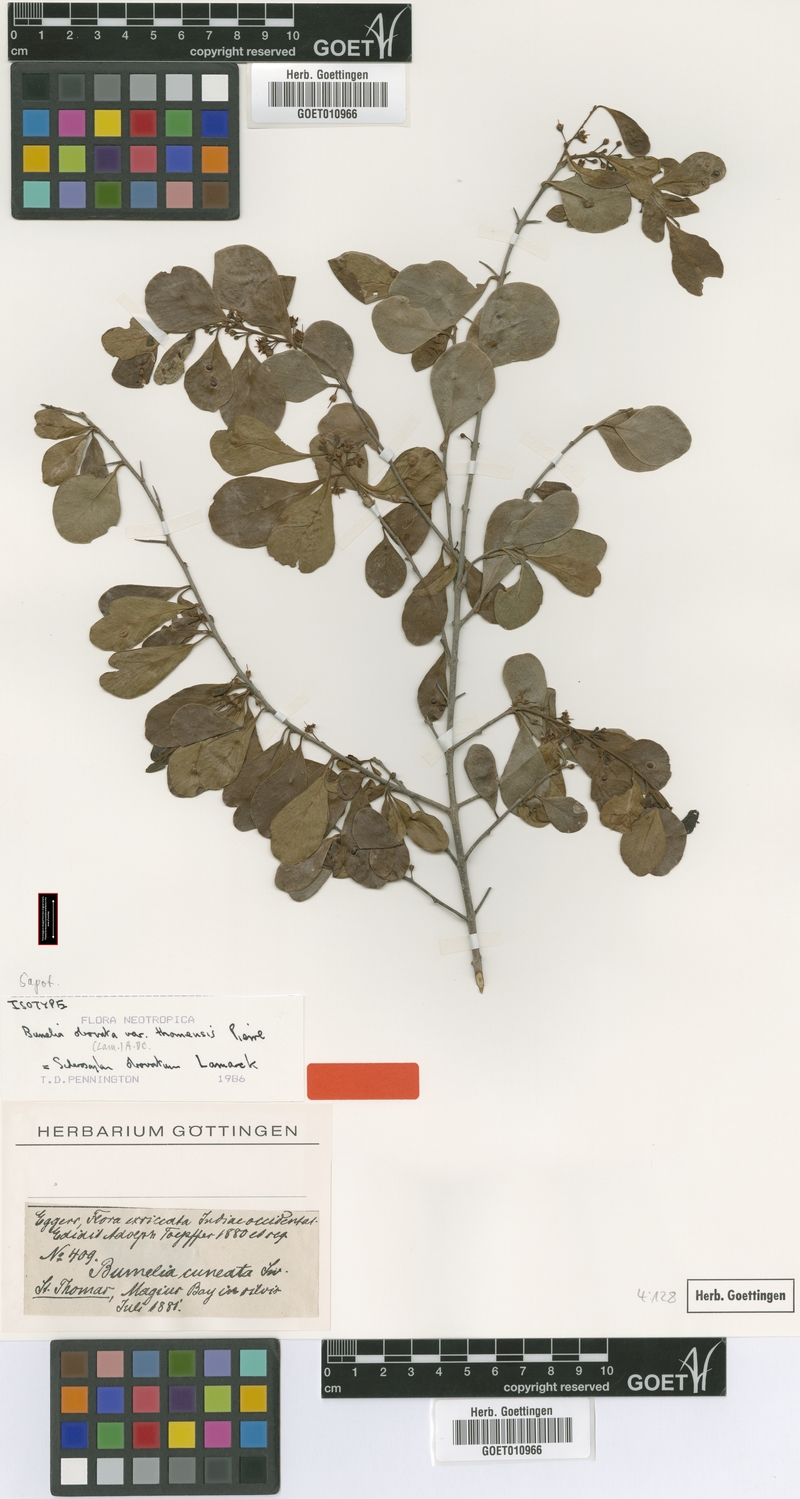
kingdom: Plantae
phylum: Tracheophyta
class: Magnoliopsida
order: Ericales
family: Sapotaceae
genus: Sideroxylon
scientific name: Sideroxylon obovatum
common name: Breakbill
